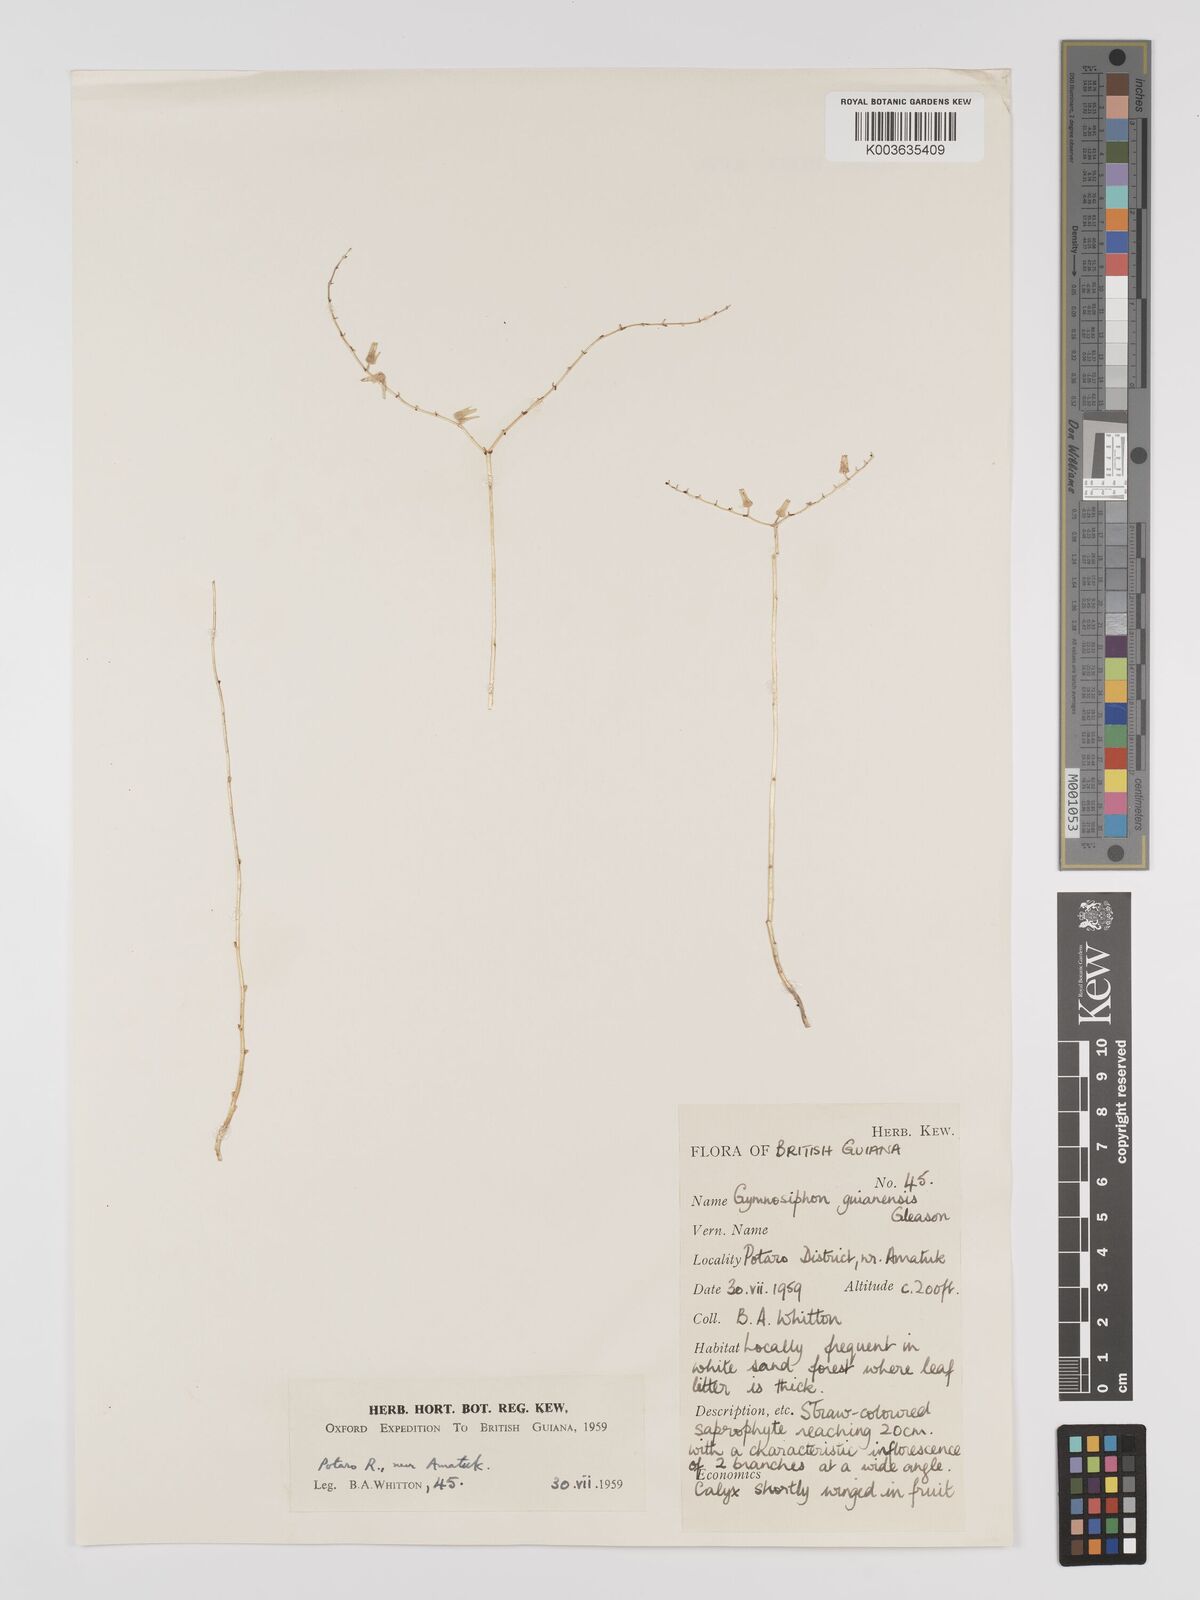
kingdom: Plantae
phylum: Tracheophyta
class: Liliopsida
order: Dioscoreales
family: Burmanniaceae
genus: Gymnosiphon
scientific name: Gymnosiphon guianensis
